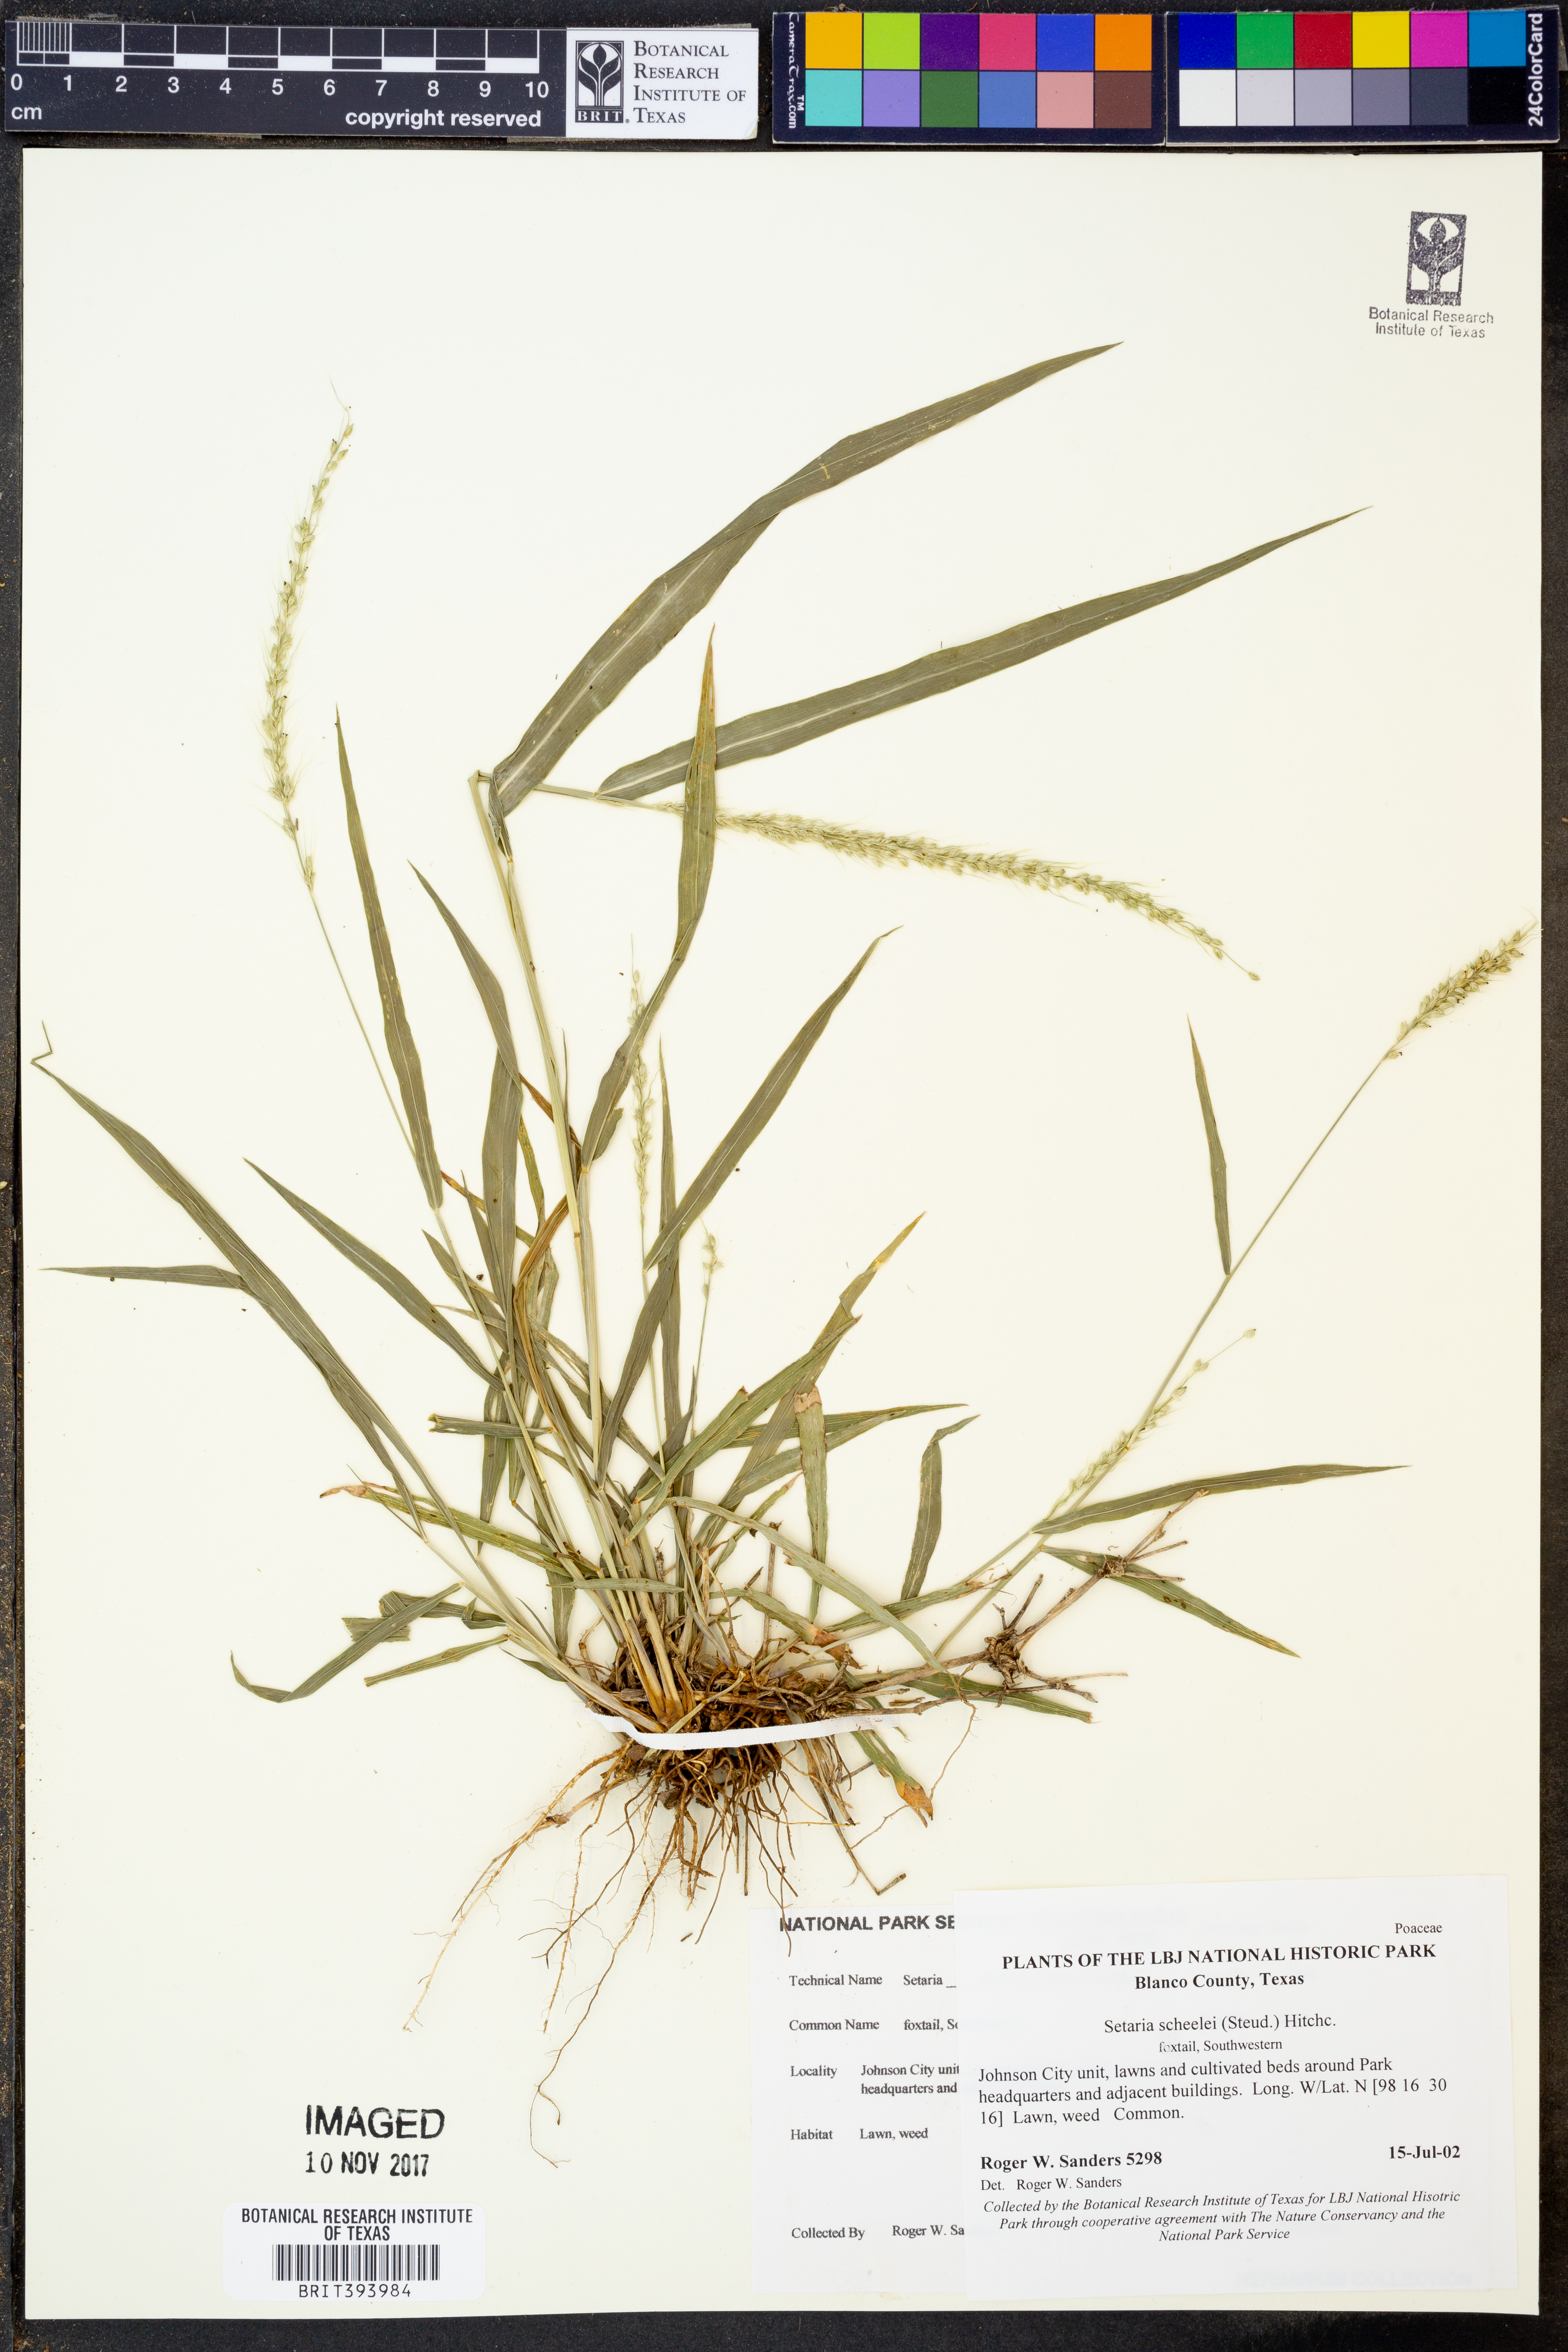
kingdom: Plantae
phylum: Tracheophyta
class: Liliopsida
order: Poales
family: Poaceae
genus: Setaria
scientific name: Setaria scheelei
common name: Southwestern bristle grass
